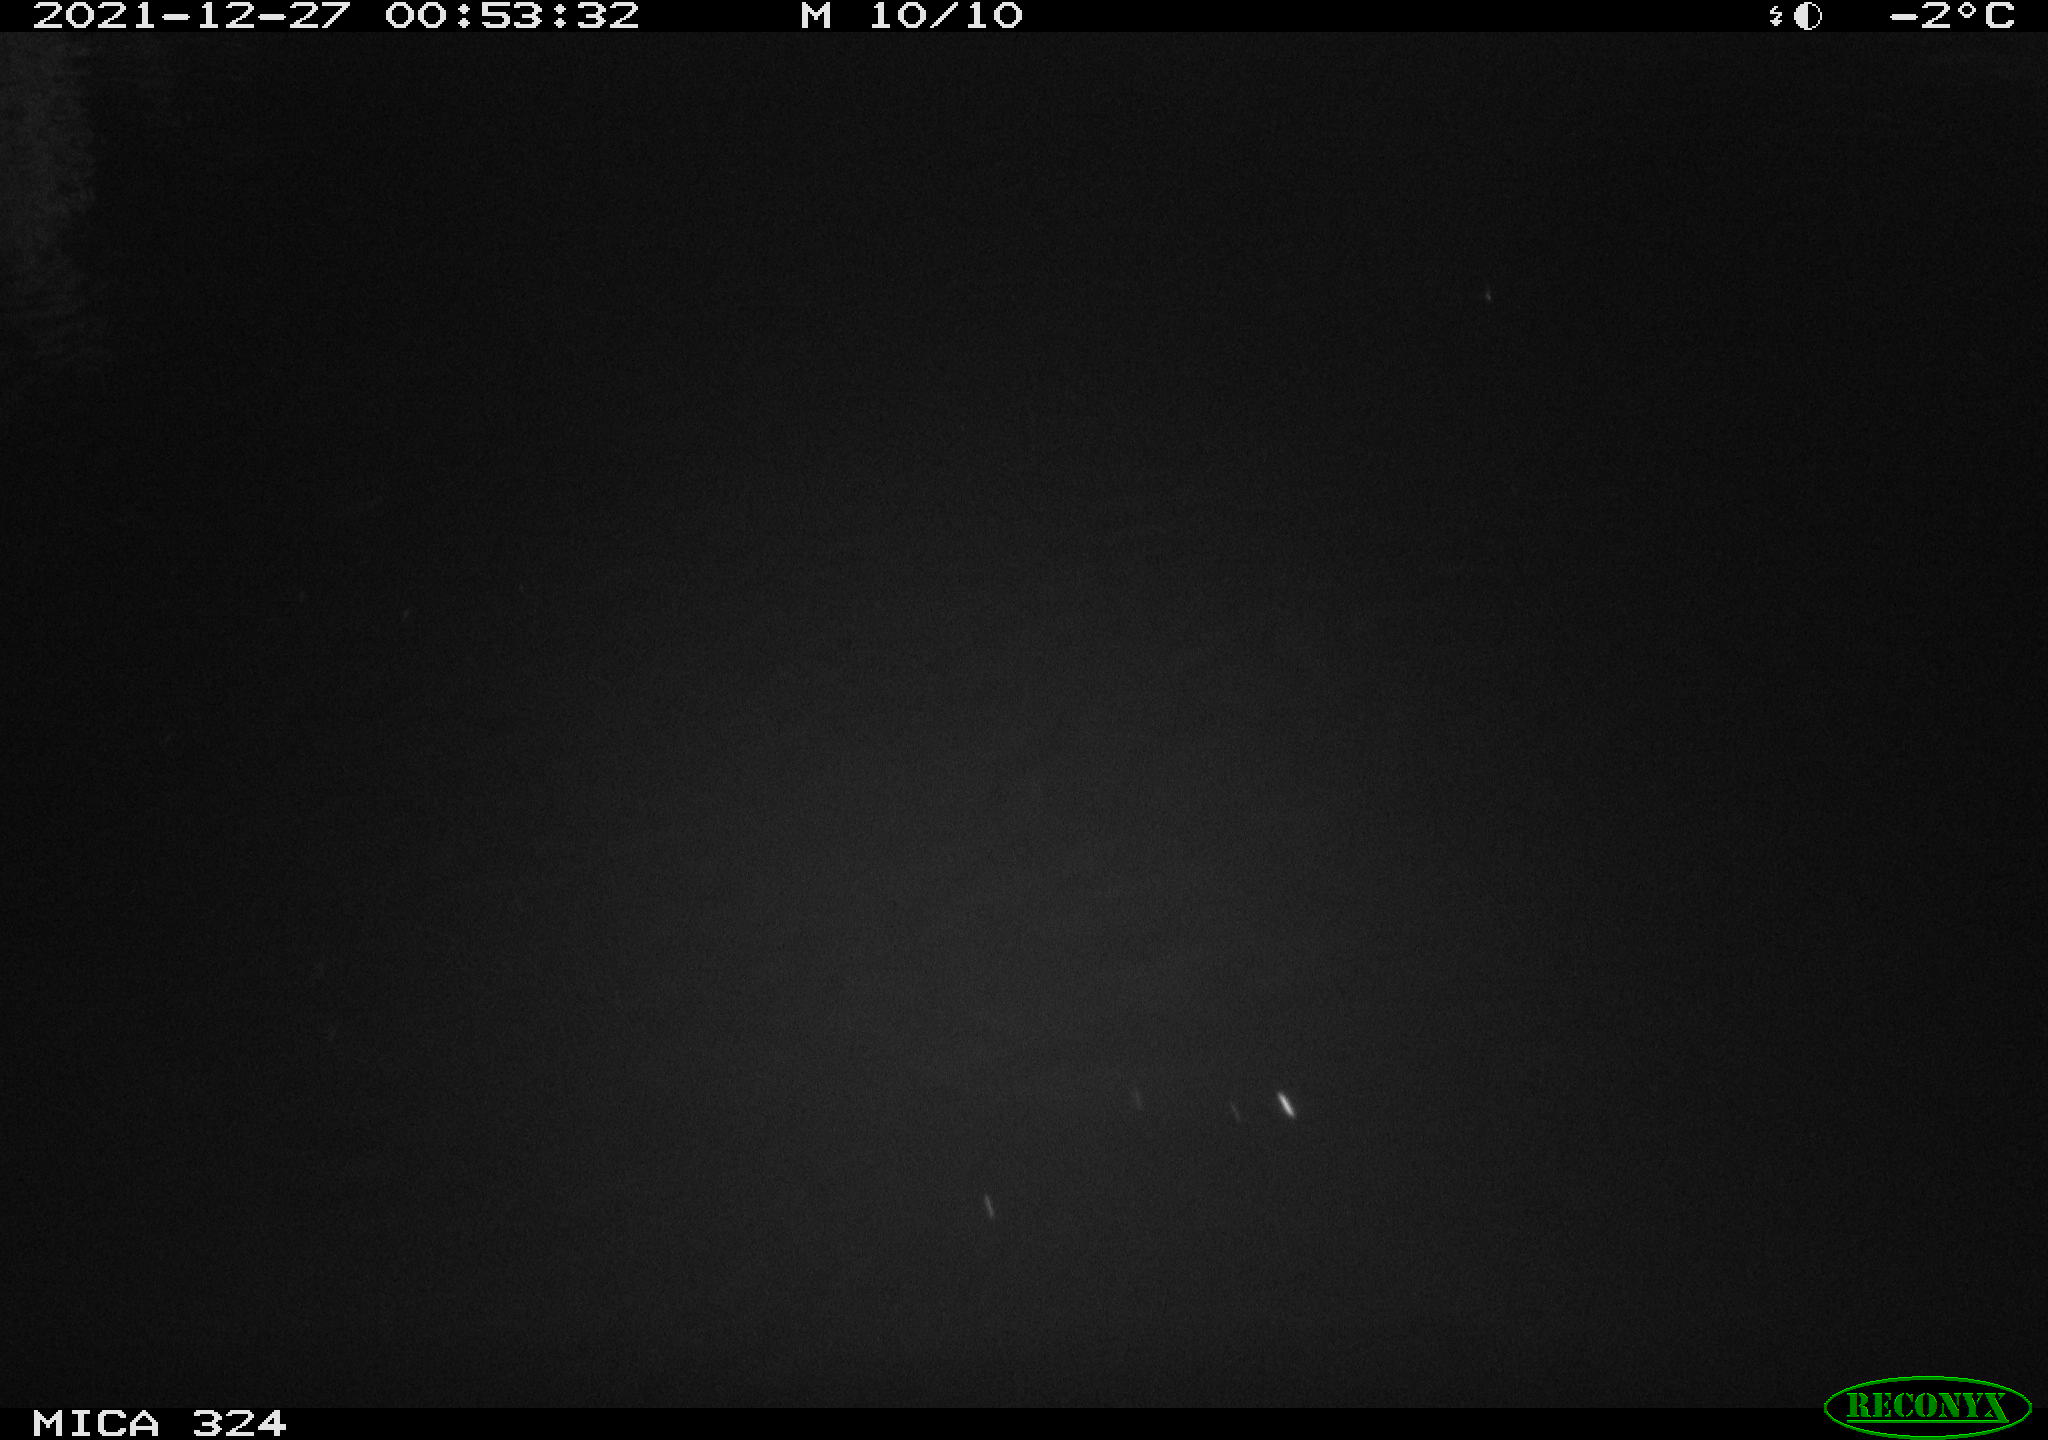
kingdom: Animalia
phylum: Chordata
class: Aves
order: Anseriformes
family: Anatidae
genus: Anas
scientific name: Anas platyrhynchos
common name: Mallard
